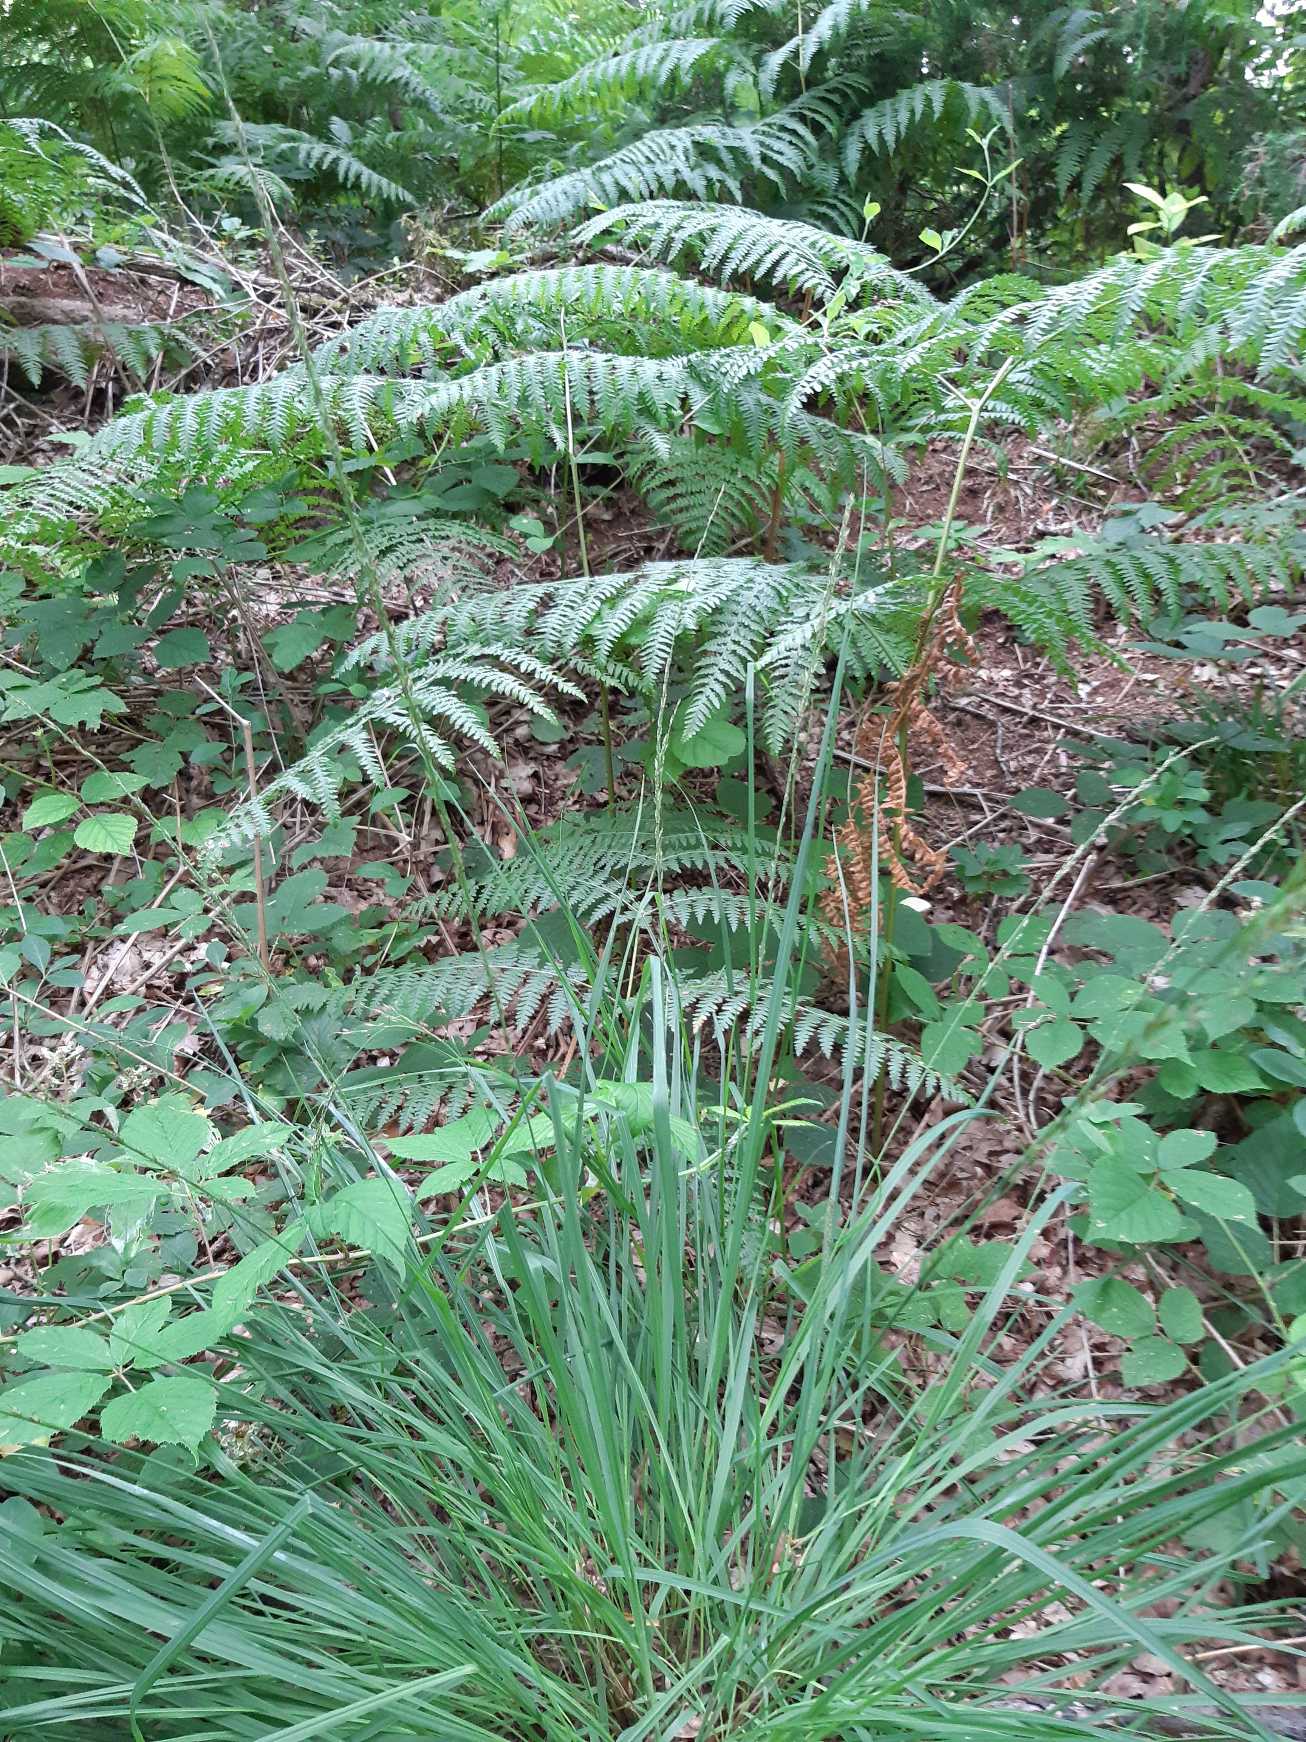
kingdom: Plantae
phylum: Tracheophyta
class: Liliopsida
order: Poales
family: Poaceae
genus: Molinia
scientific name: Molinia caerulea
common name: Blåtop
